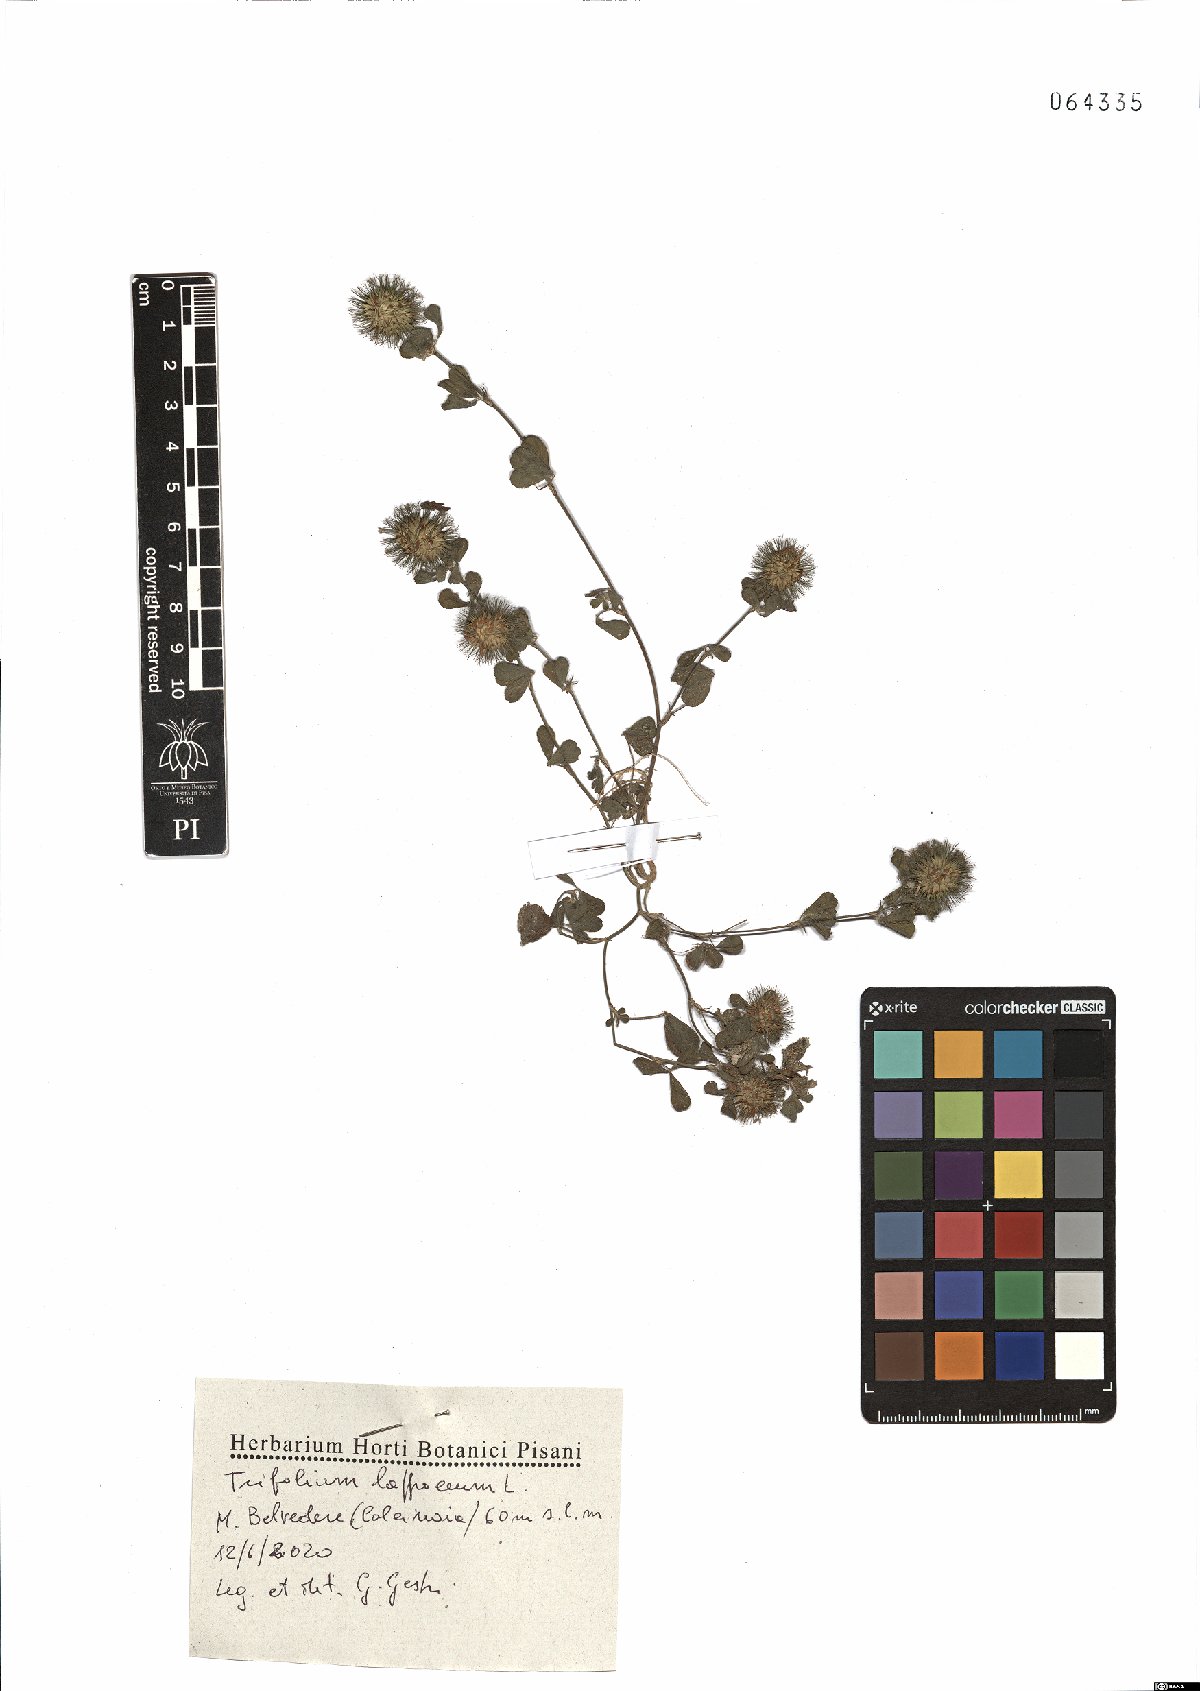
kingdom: Plantae
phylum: Tracheophyta
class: Magnoliopsida
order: Fabales
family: Fabaceae
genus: Trifolium
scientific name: Trifolium lappaceum
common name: Bur clover
